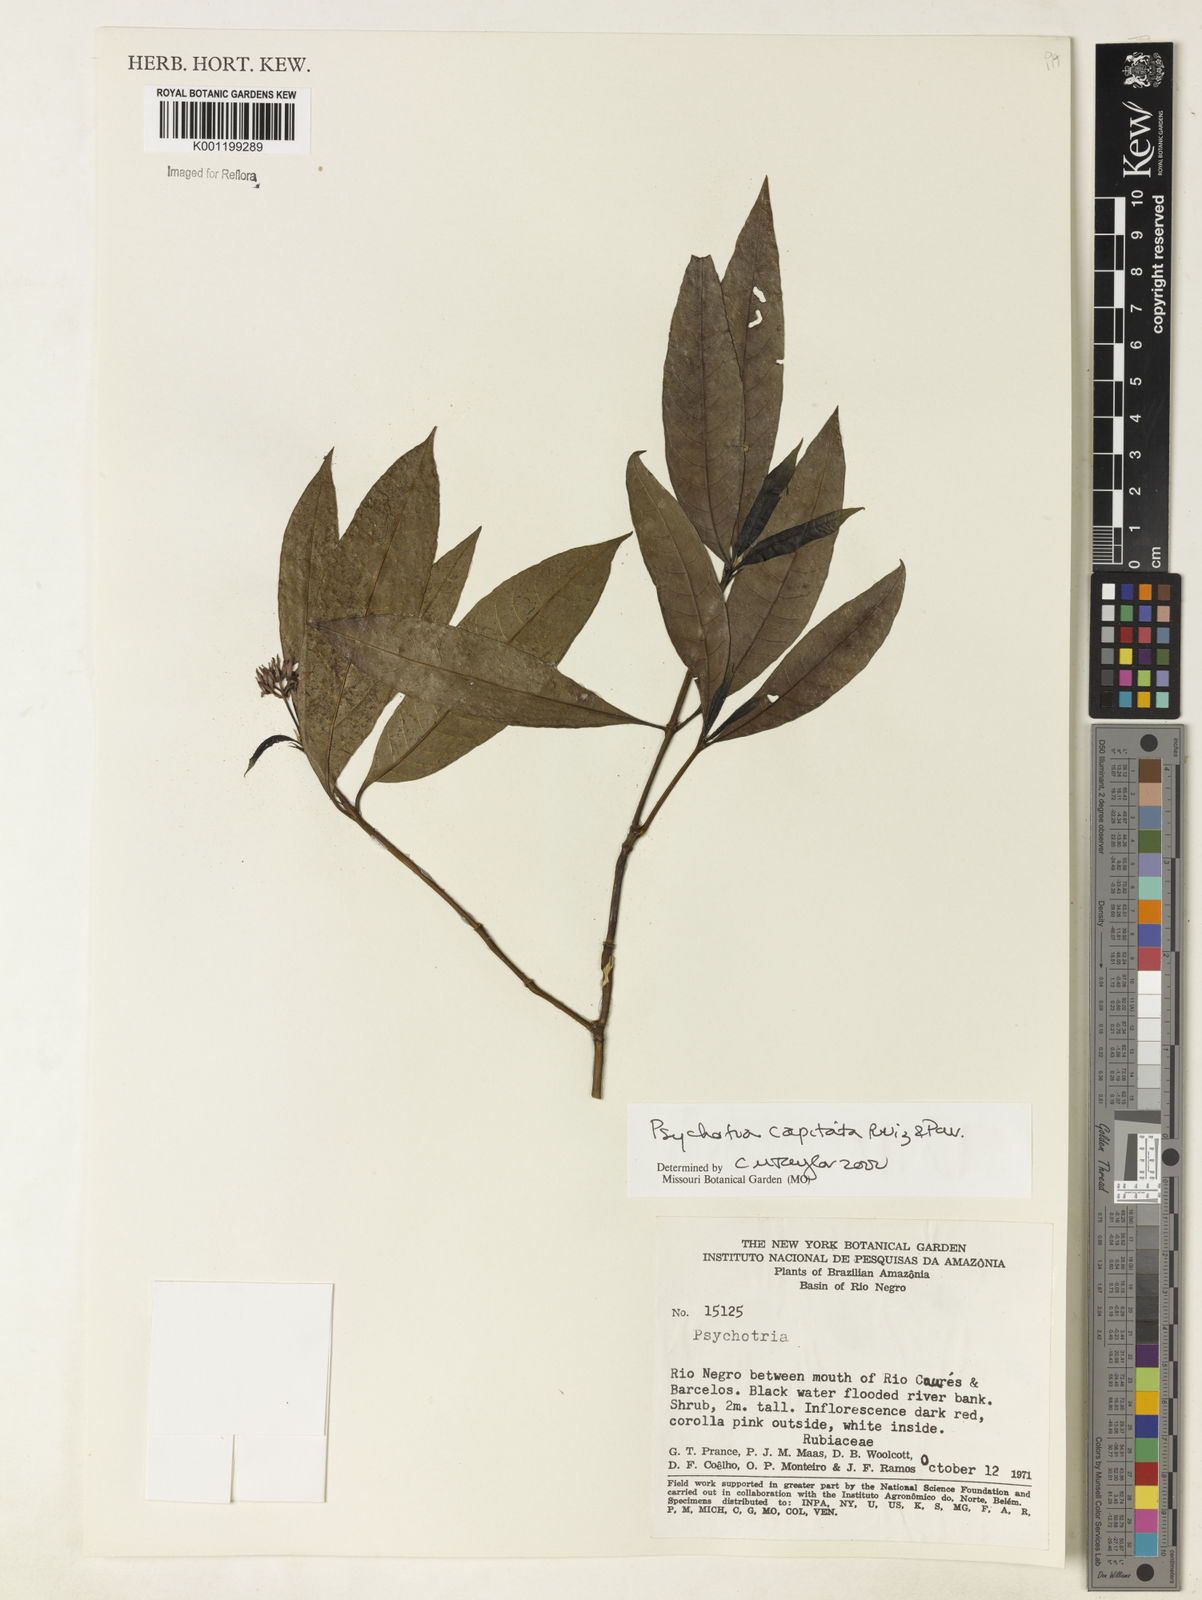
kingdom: Plantae
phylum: Tracheophyta
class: Magnoliopsida
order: Gentianales
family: Rubiaceae
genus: Palicourea
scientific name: Palicourea violacea
